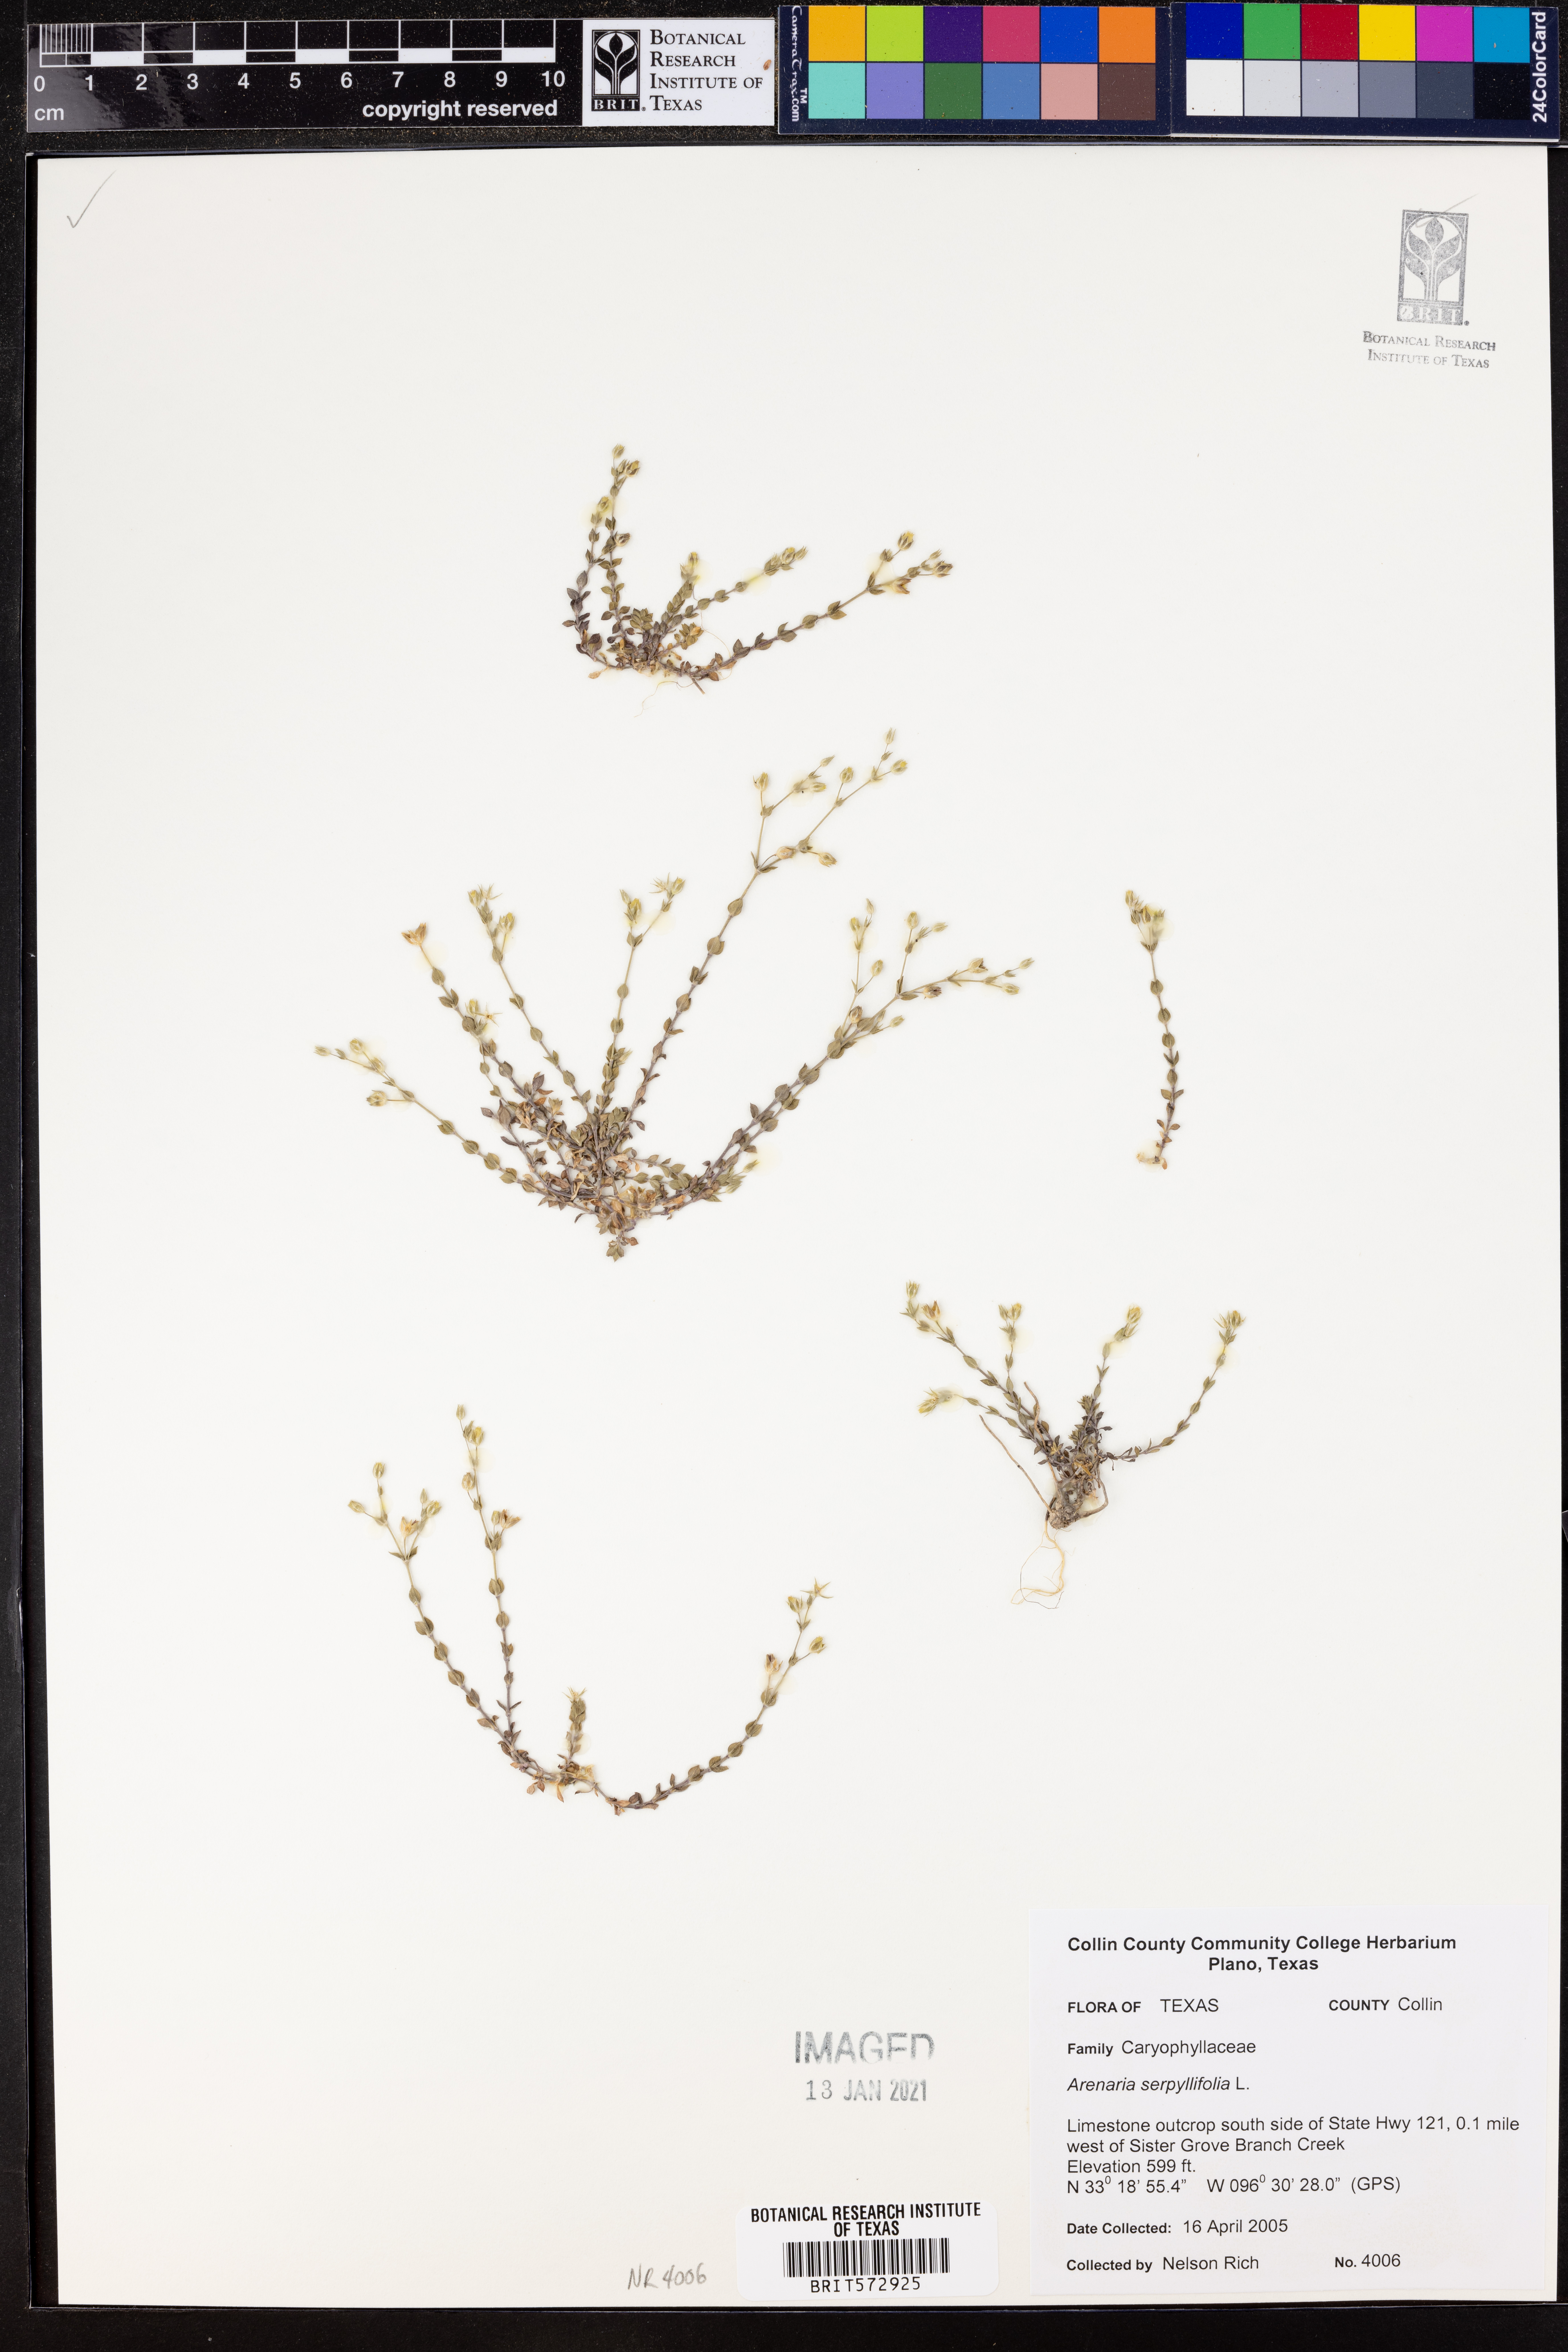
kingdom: Plantae
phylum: Tracheophyta
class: Magnoliopsida
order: Caryophyllales
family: Caryophyllaceae
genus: Arenaria
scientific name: Arenaria serpyllifolia
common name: Thyme-leaved sandwort
